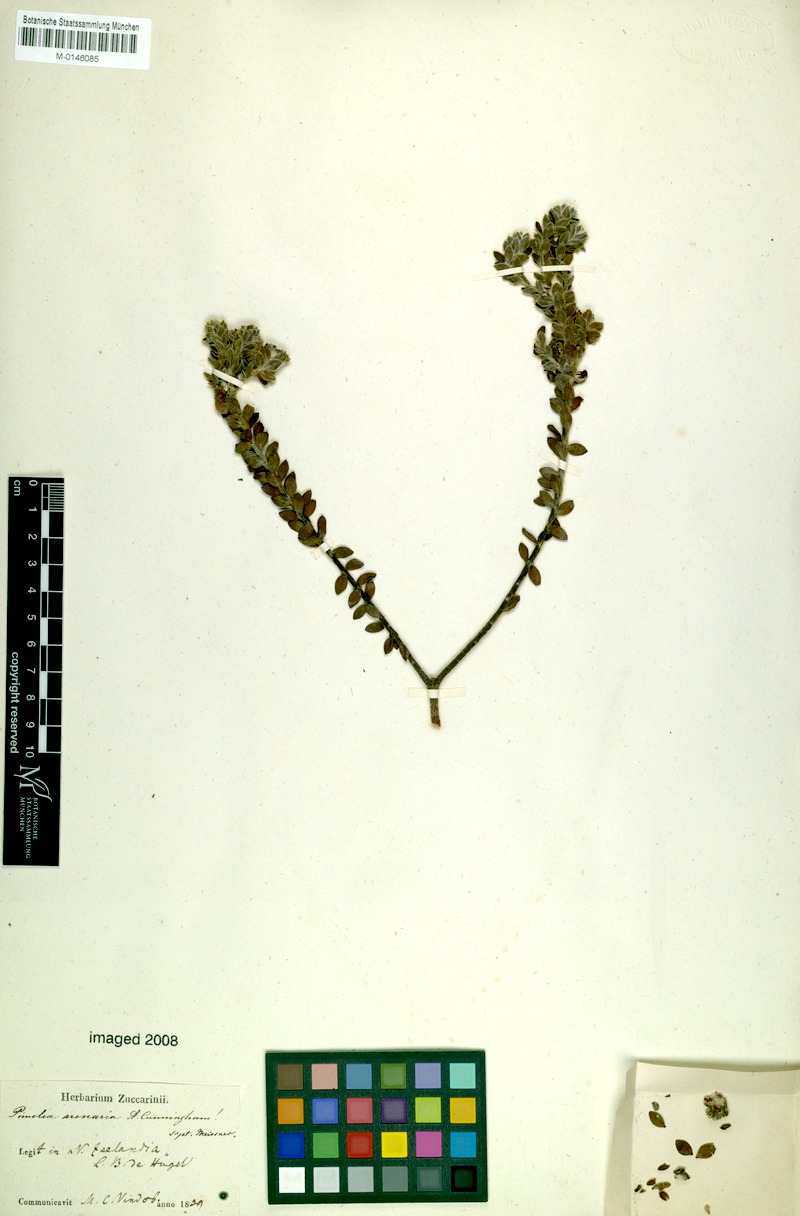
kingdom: Plantae
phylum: Tracheophyta
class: Magnoliopsida
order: Malvales
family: Thymelaeaceae
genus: Pimelea
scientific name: Pimelea villosa
